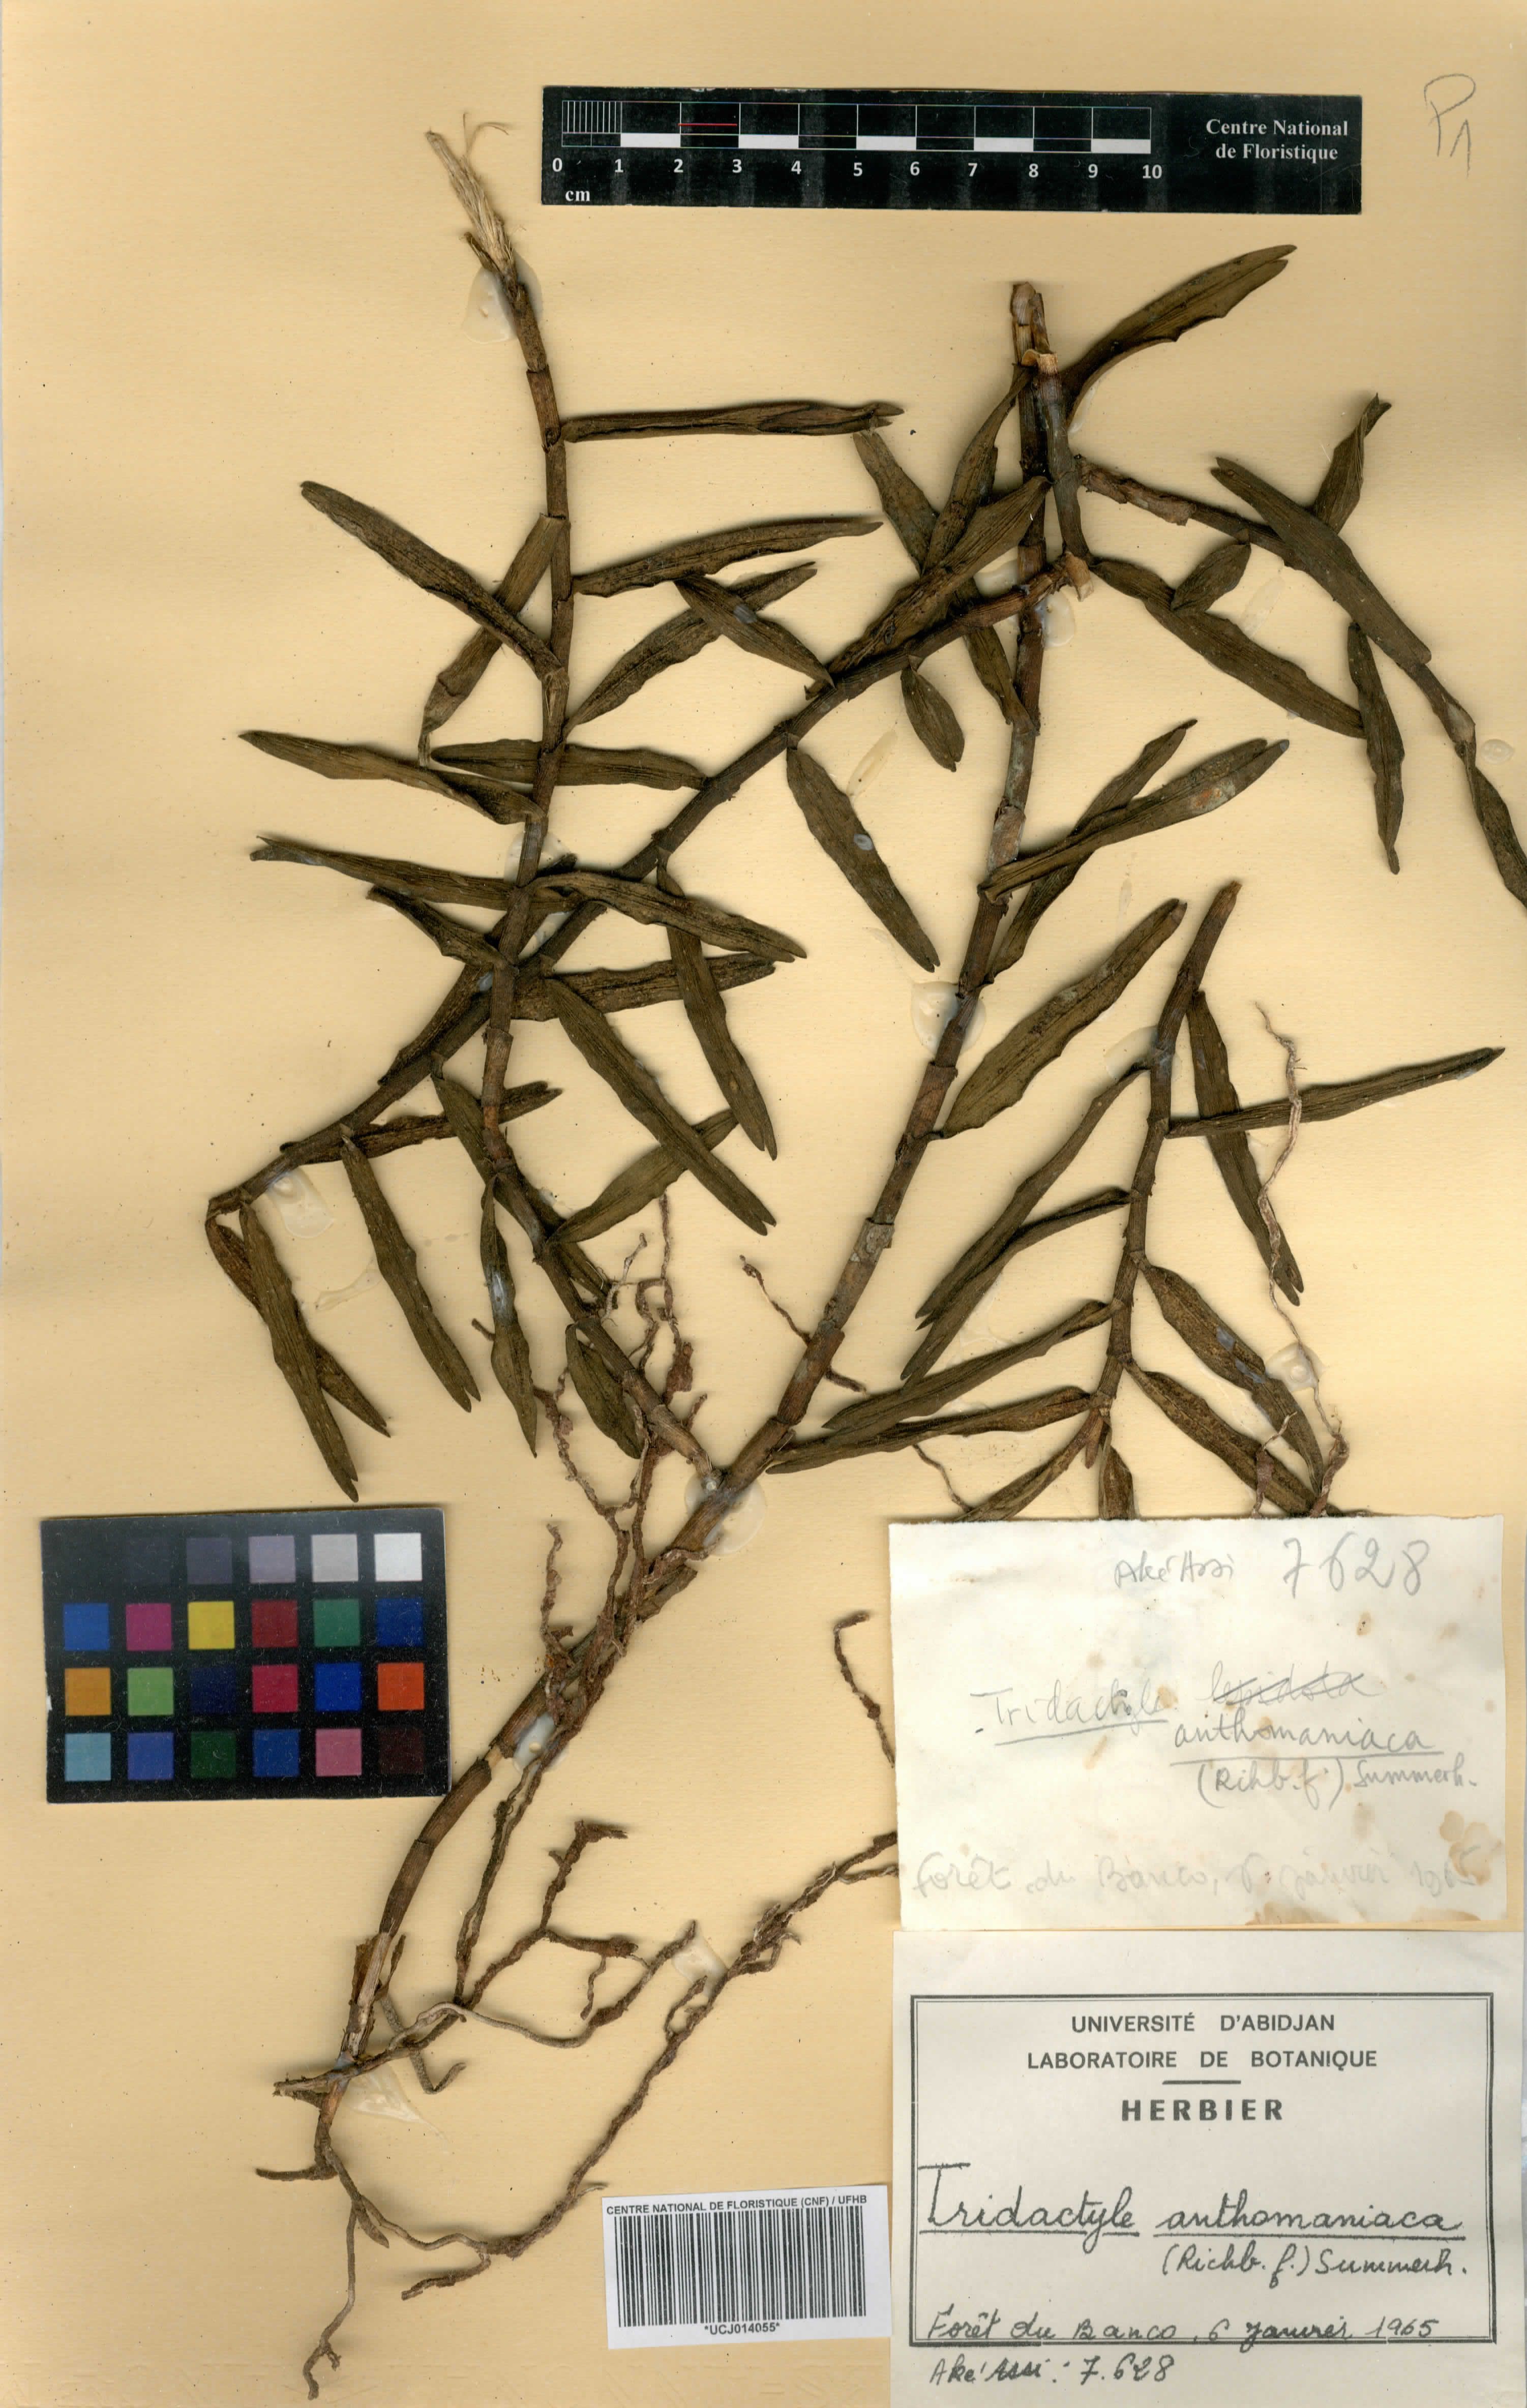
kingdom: Plantae
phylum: Tracheophyta
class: Liliopsida
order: Asparagales
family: Orchidaceae
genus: Tridactyle
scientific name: Tridactyle anthomaniaca
